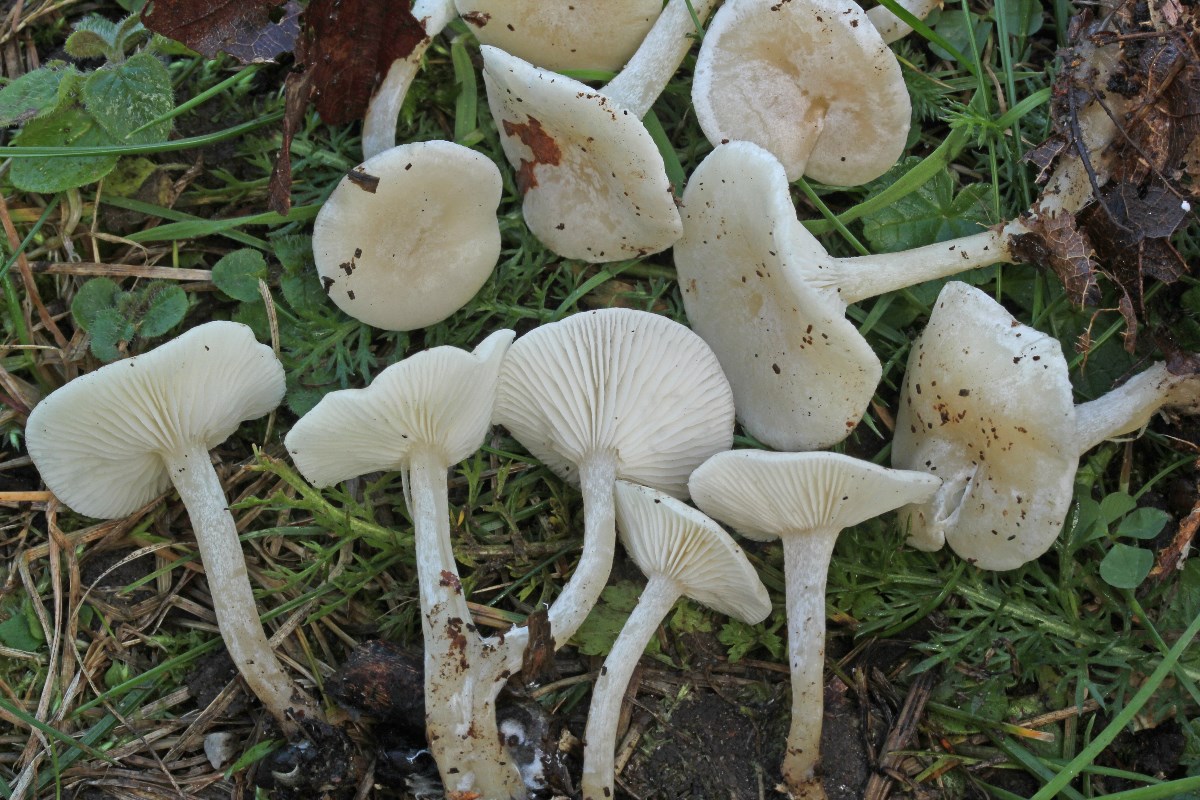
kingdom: Fungi
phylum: Basidiomycota
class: Agaricomycetes
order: Agaricales
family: Tricholomataceae
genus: Leucocybe
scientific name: Leucocybe candicans
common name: kridt-tragthat
